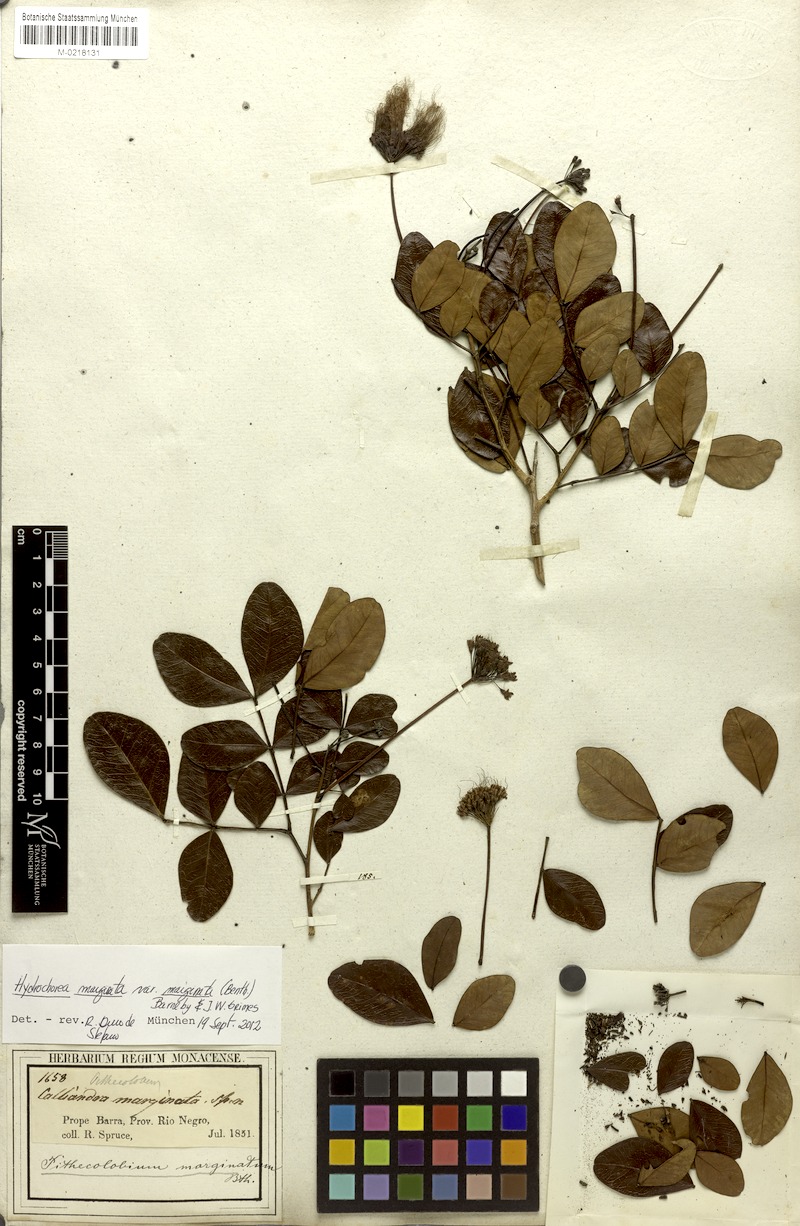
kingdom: Plantae
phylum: Tracheophyta
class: Magnoliopsida
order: Fabales
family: Fabaceae
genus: Hydrochorea
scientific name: Hydrochorea marginata
